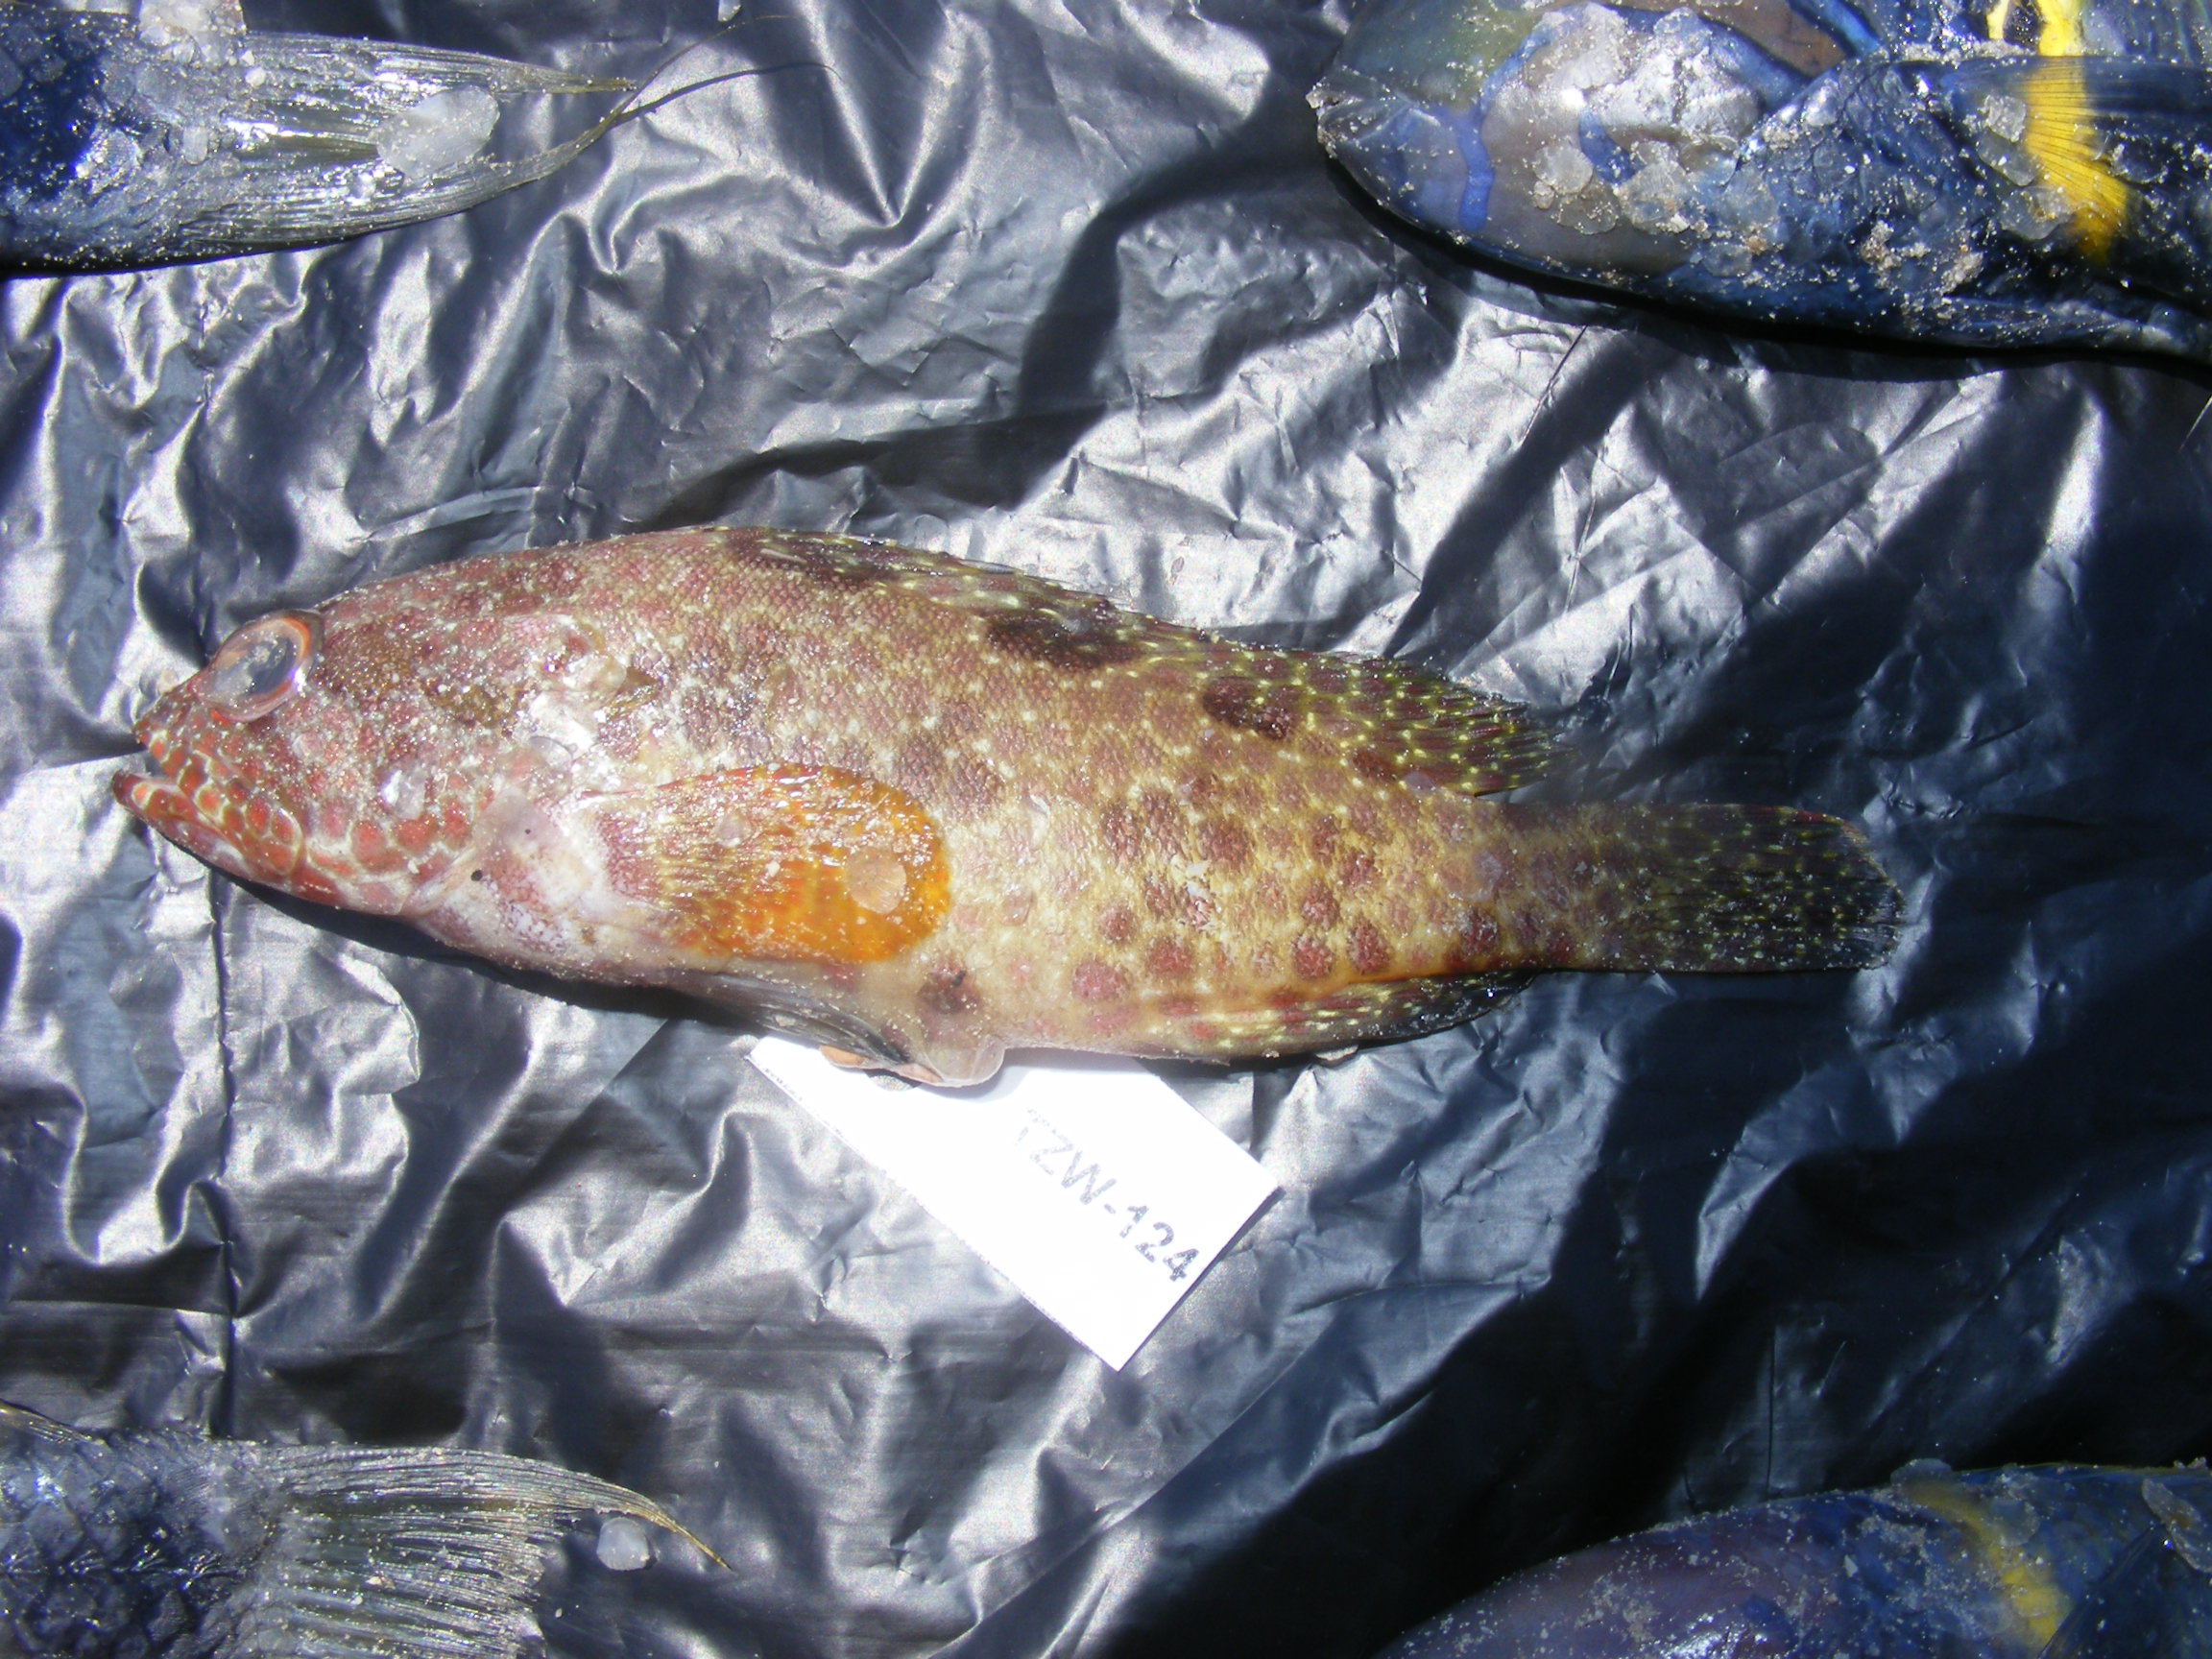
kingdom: Animalia
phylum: Chordata
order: Perciformes
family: Serranidae
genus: Epinephelus
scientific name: Epinephelus hexagonatus
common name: Hexagon grouper
